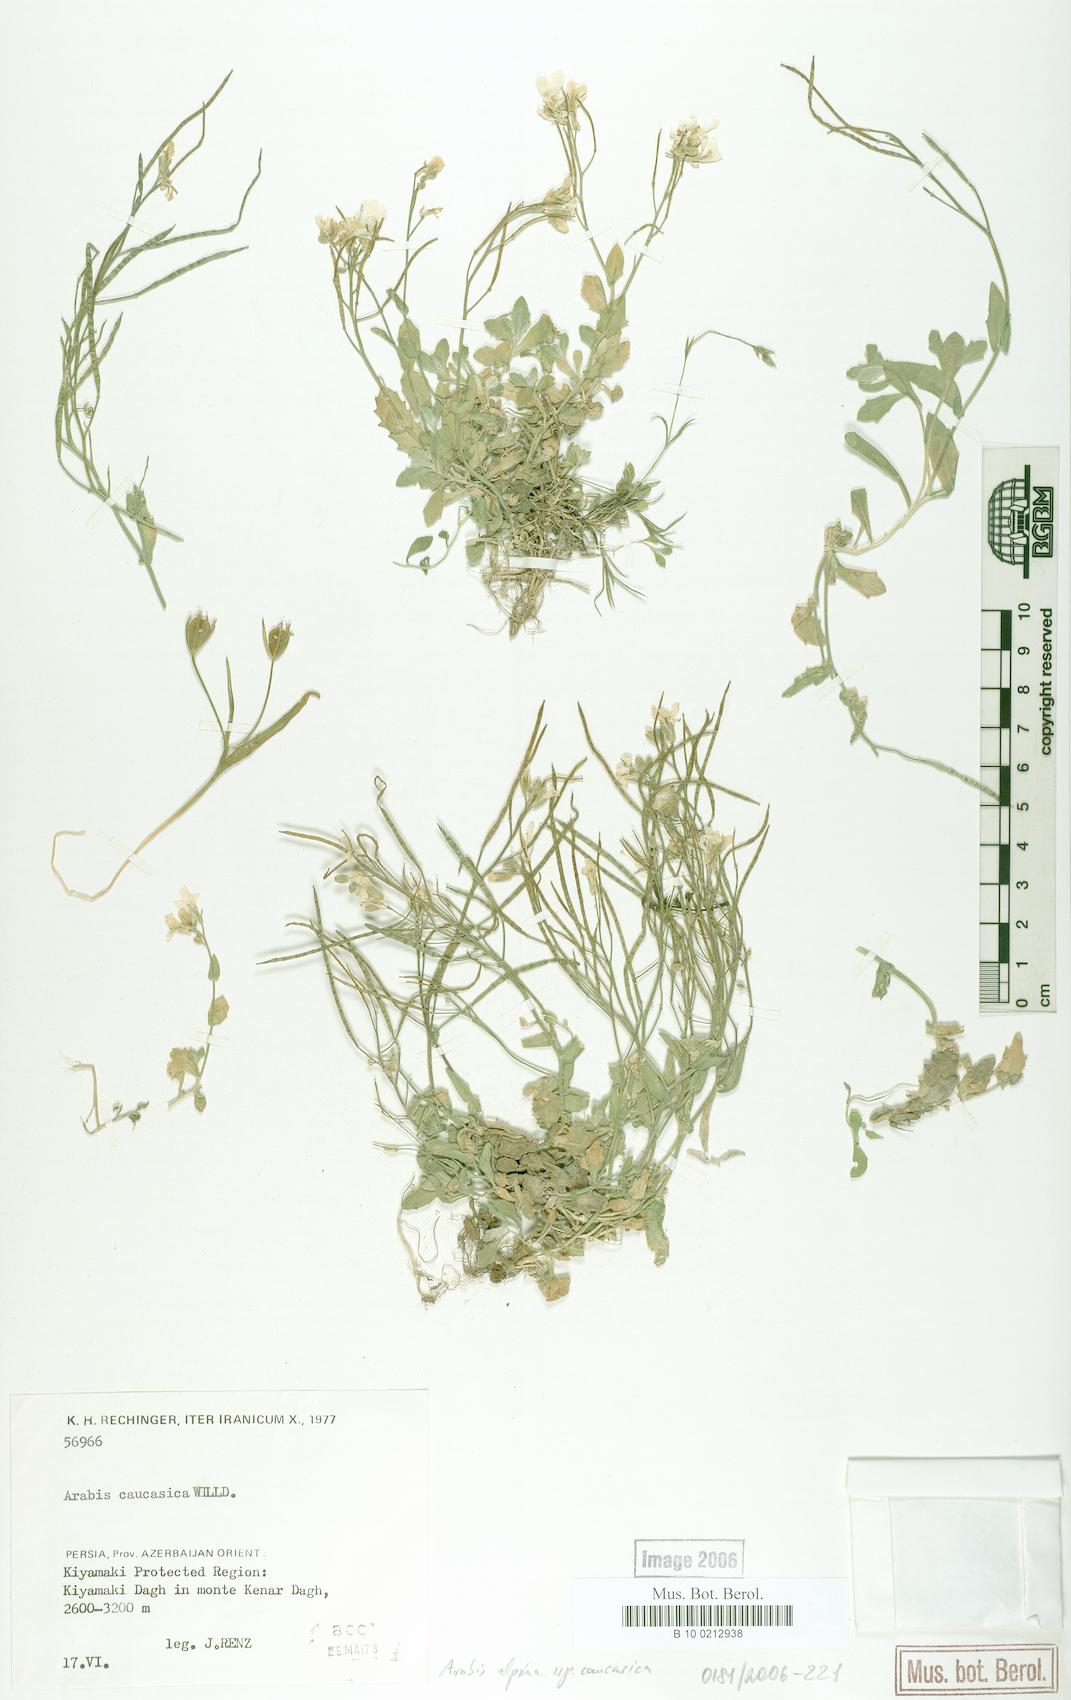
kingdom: Plantae
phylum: Tracheophyta
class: Magnoliopsida
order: Brassicales
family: Brassicaceae
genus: Arabis
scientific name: Arabis caucasica
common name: Gray rockcress
